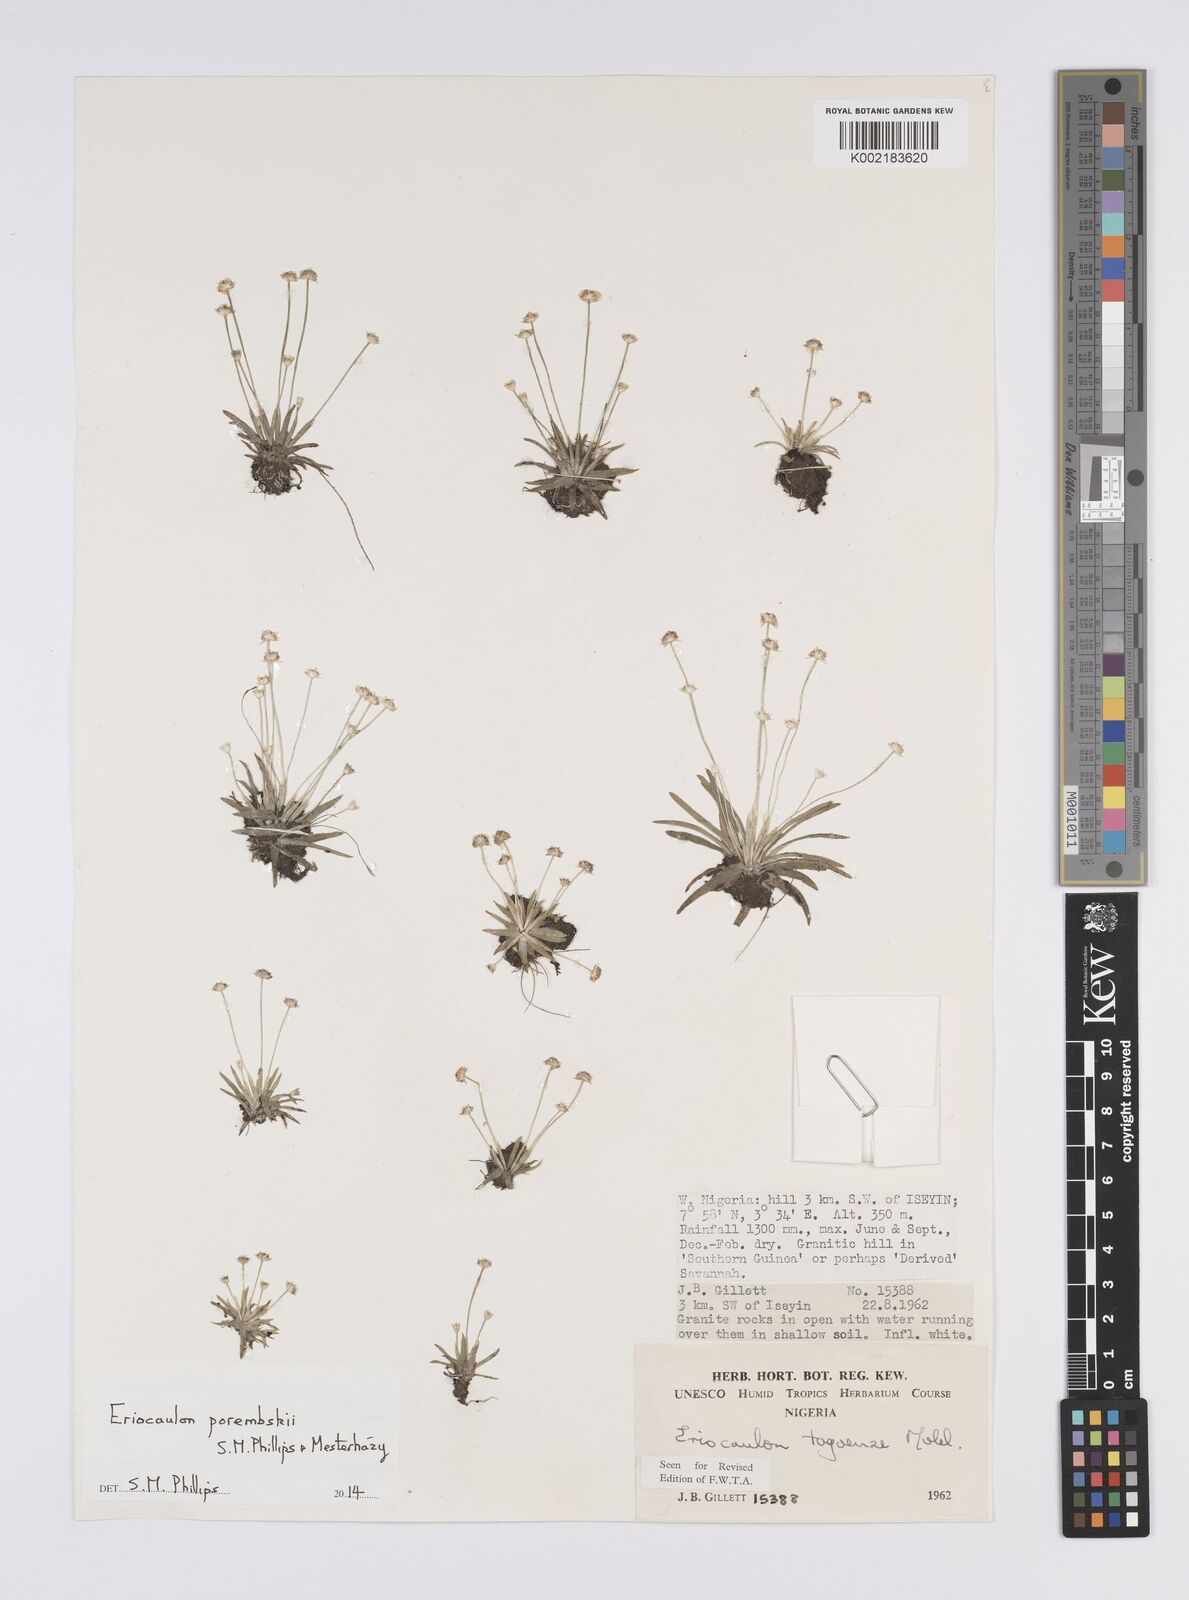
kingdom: Plantae
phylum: Tracheophyta
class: Liliopsida
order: Poales
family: Eriocaulaceae
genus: Eriocaulon
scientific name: Eriocaulon porembskii
